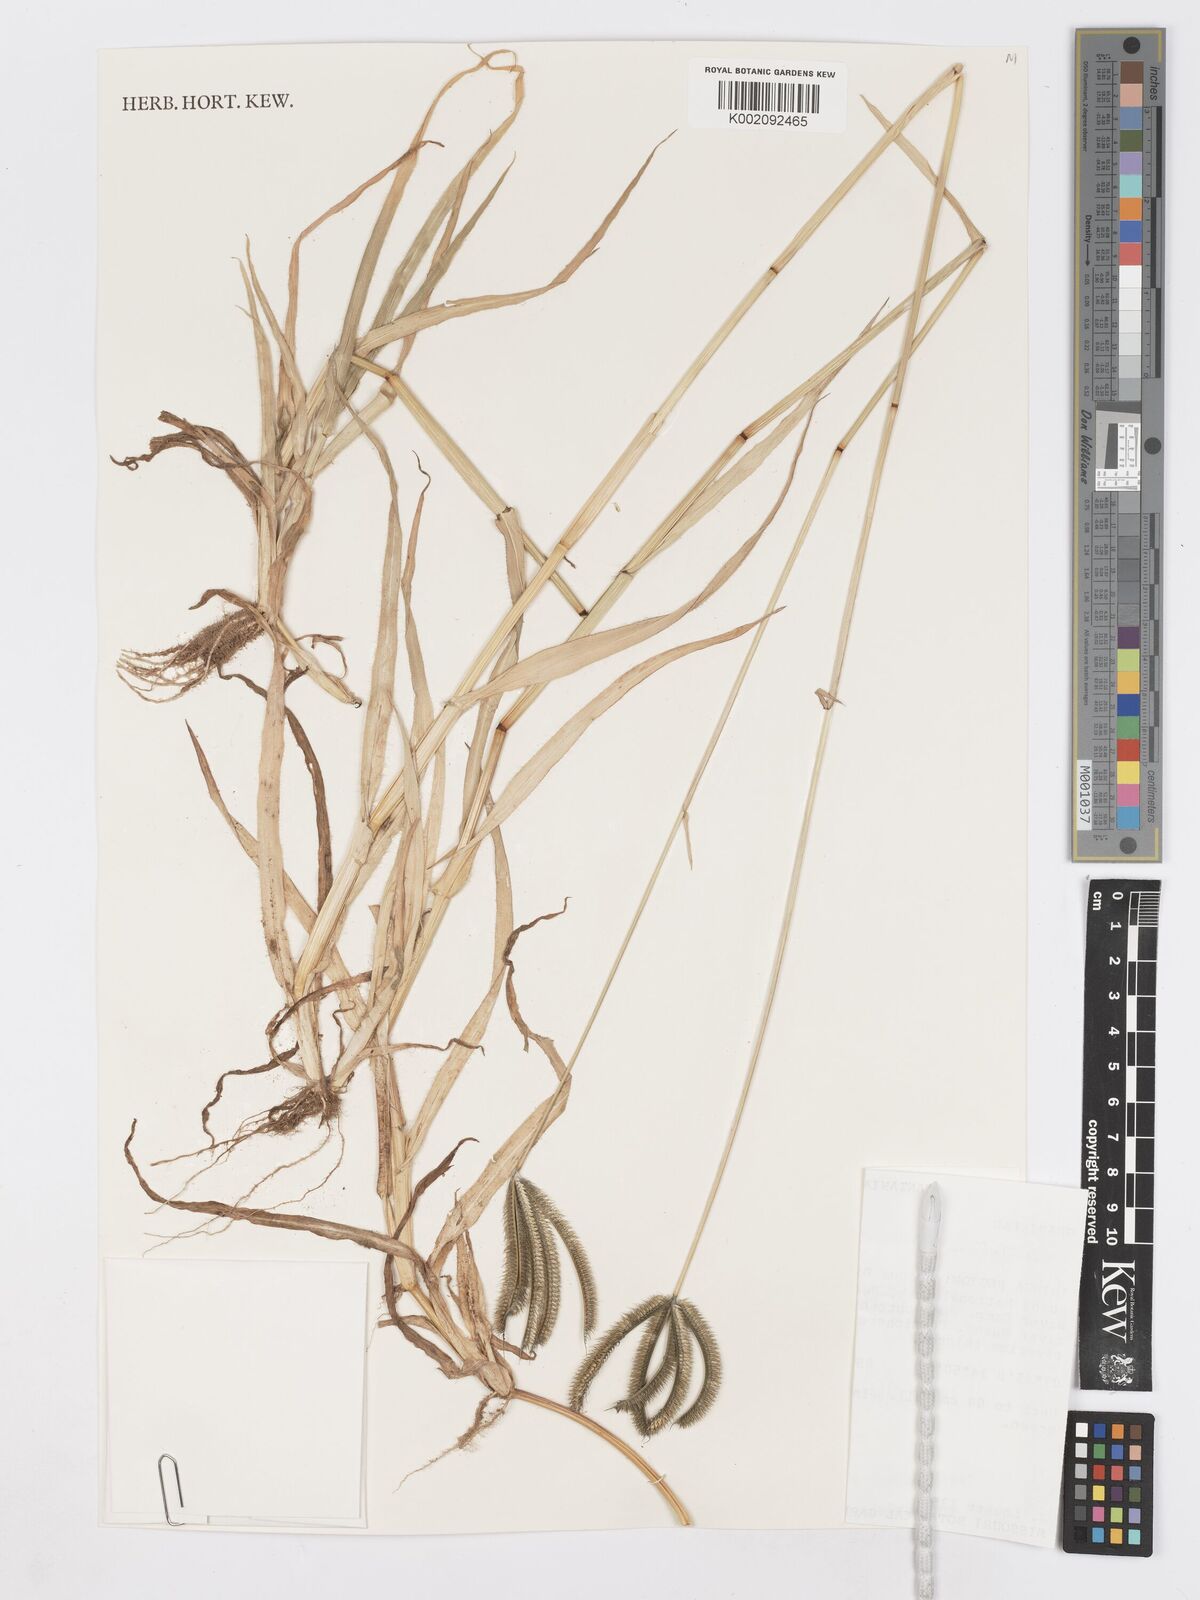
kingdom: Plantae
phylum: Tracheophyta
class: Liliopsida
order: Poales
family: Poaceae
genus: Dactyloctenium
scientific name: Dactyloctenium giganteum
